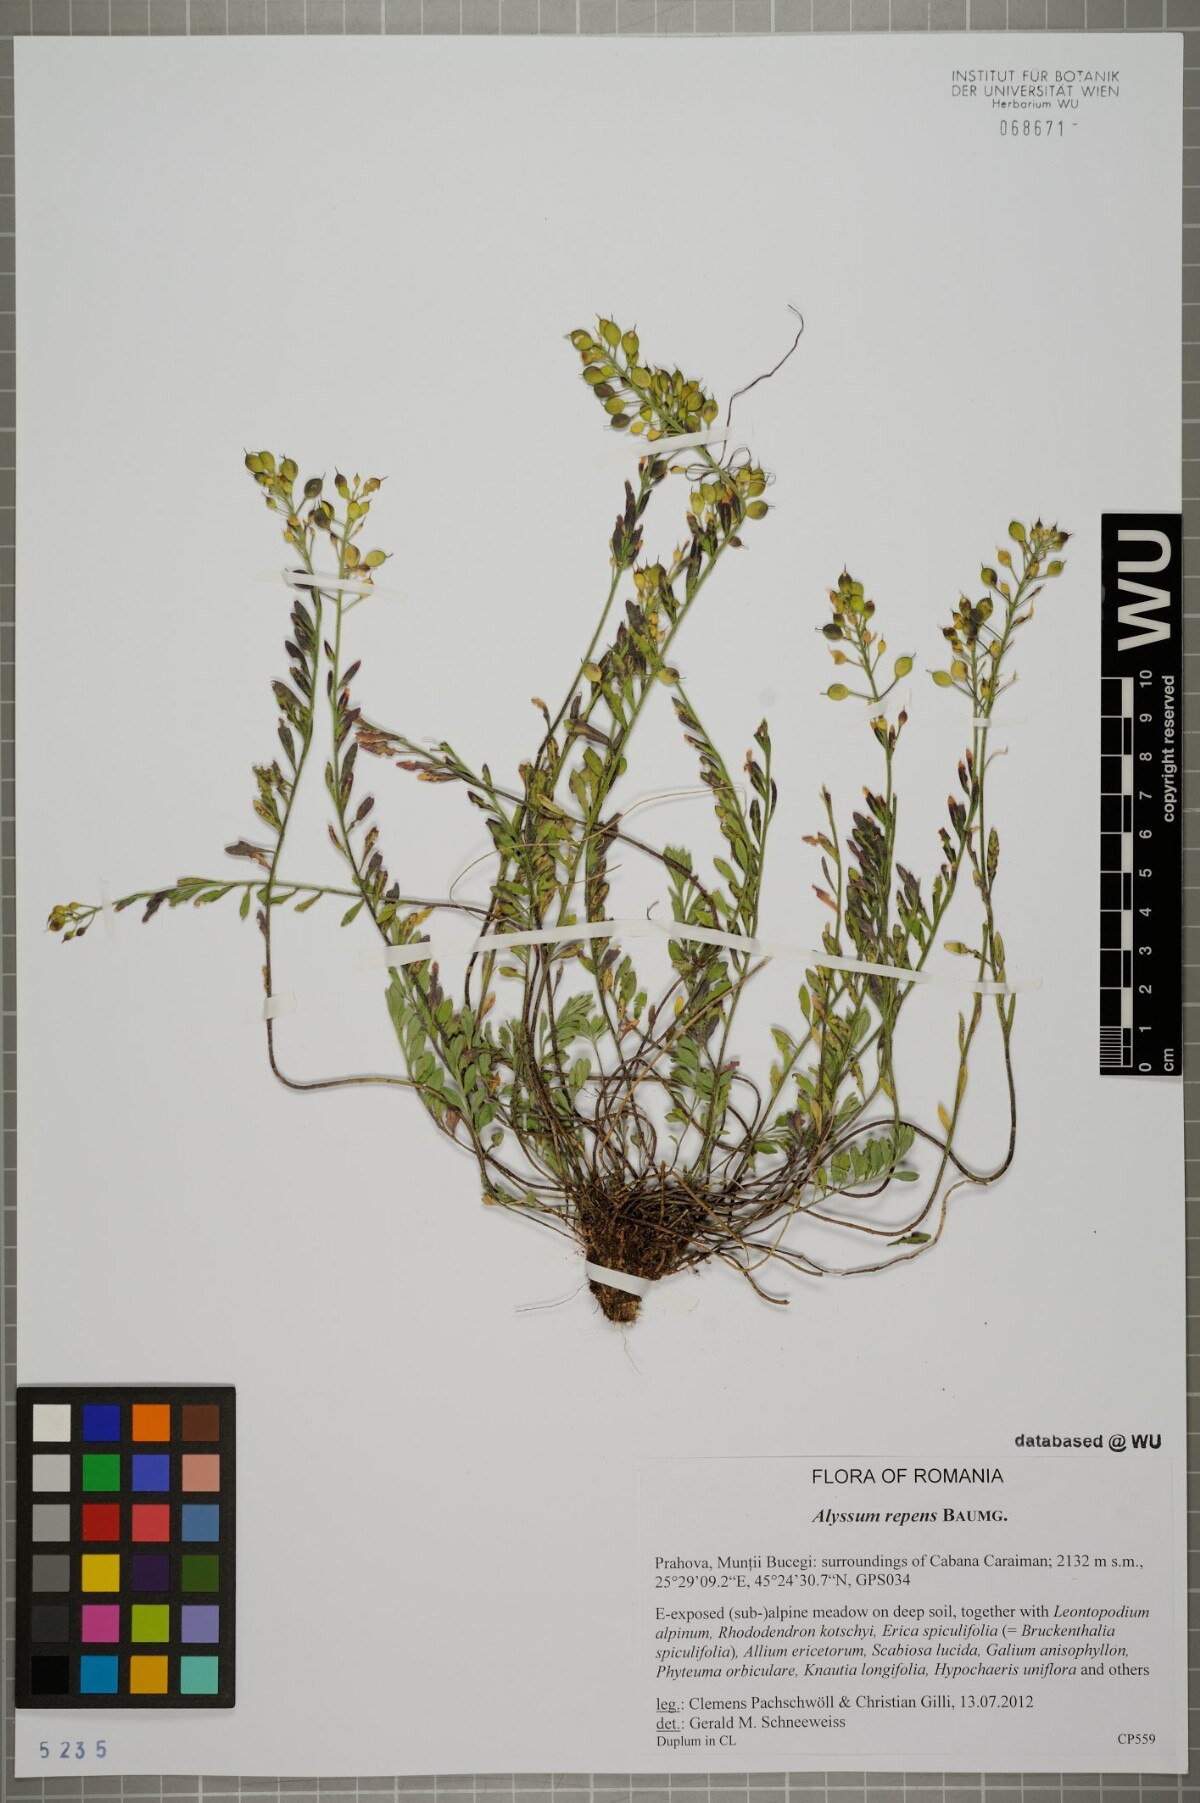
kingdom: Plantae
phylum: Tracheophyta
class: Magnoliopsida
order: Brassicales
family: Brassicaceae
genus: Alyssum
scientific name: Alyssum repens
